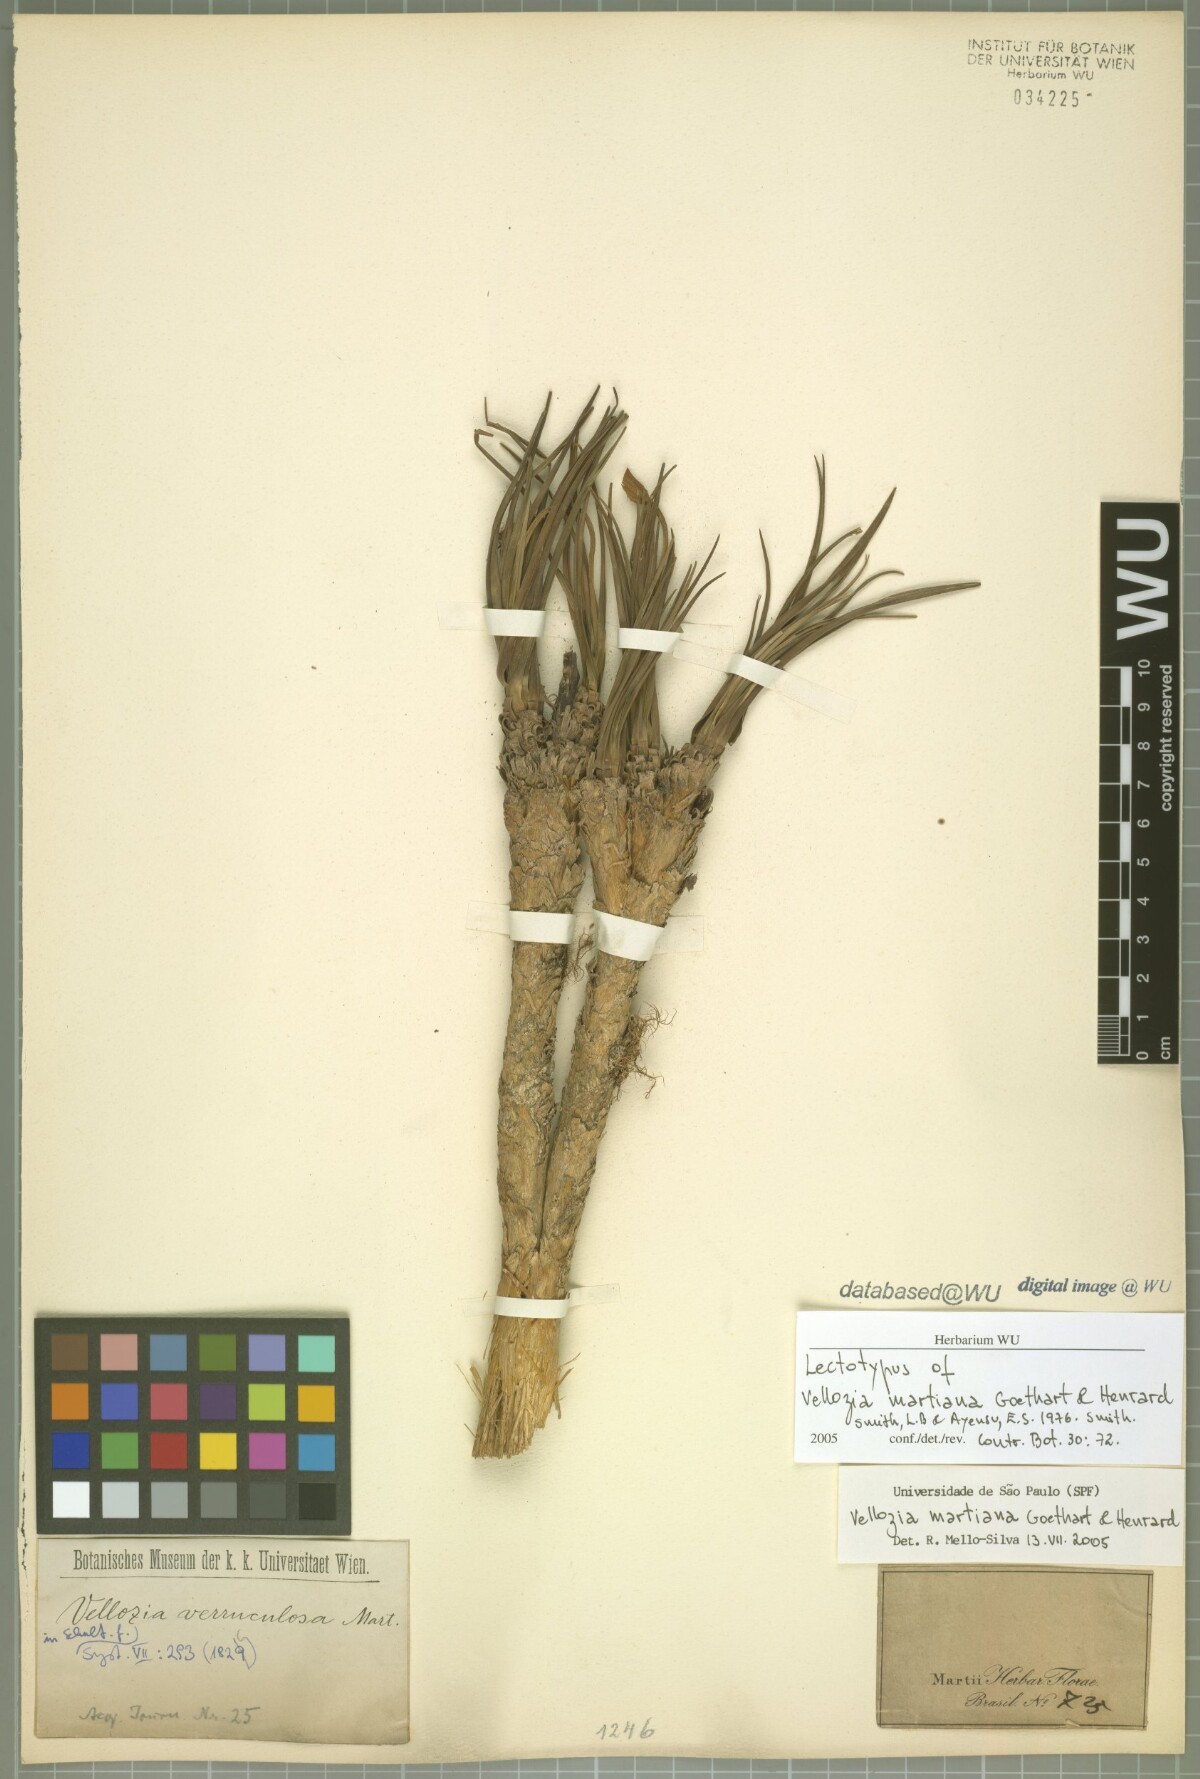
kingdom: Plantae
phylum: Tracheophyta
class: Liliopsida
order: Pandanales
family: Velloziaceae
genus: Vellozia
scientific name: Vellozia compacta
